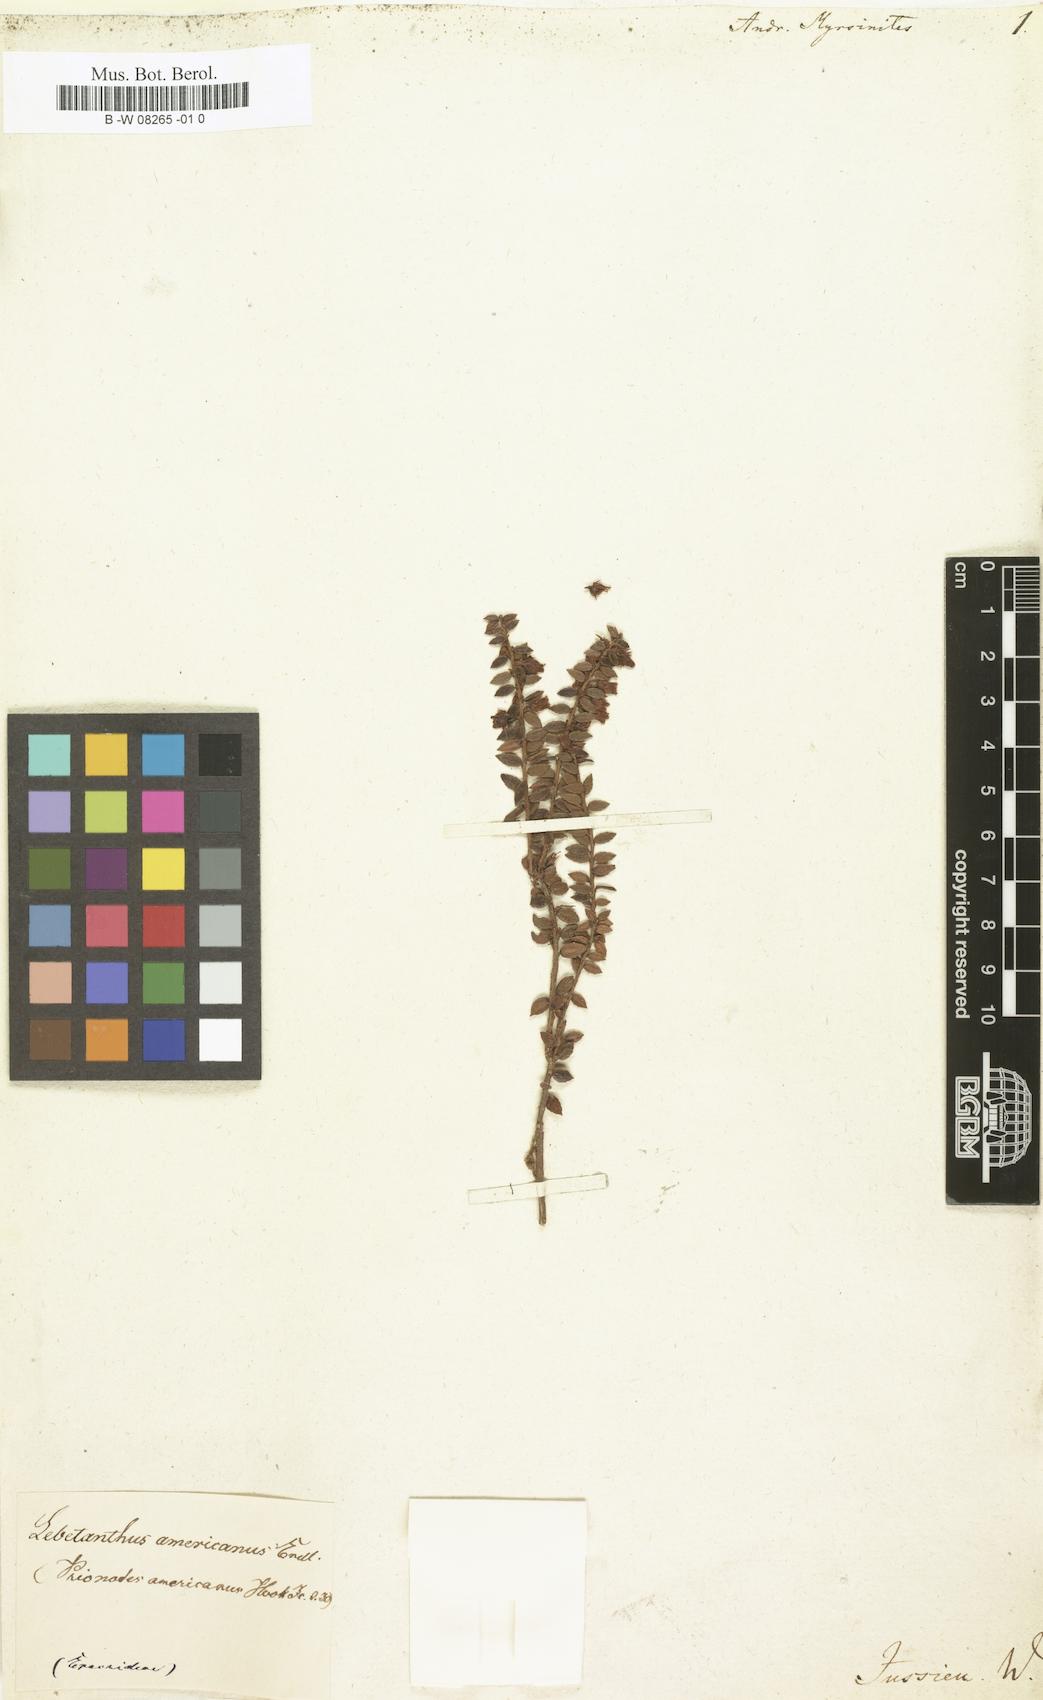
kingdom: Plantae
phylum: Tracheophyta
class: Magnoliopsida
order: Ericales
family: Ericaceae
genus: Lebetanthus
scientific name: Lebetanthus myrsinites
